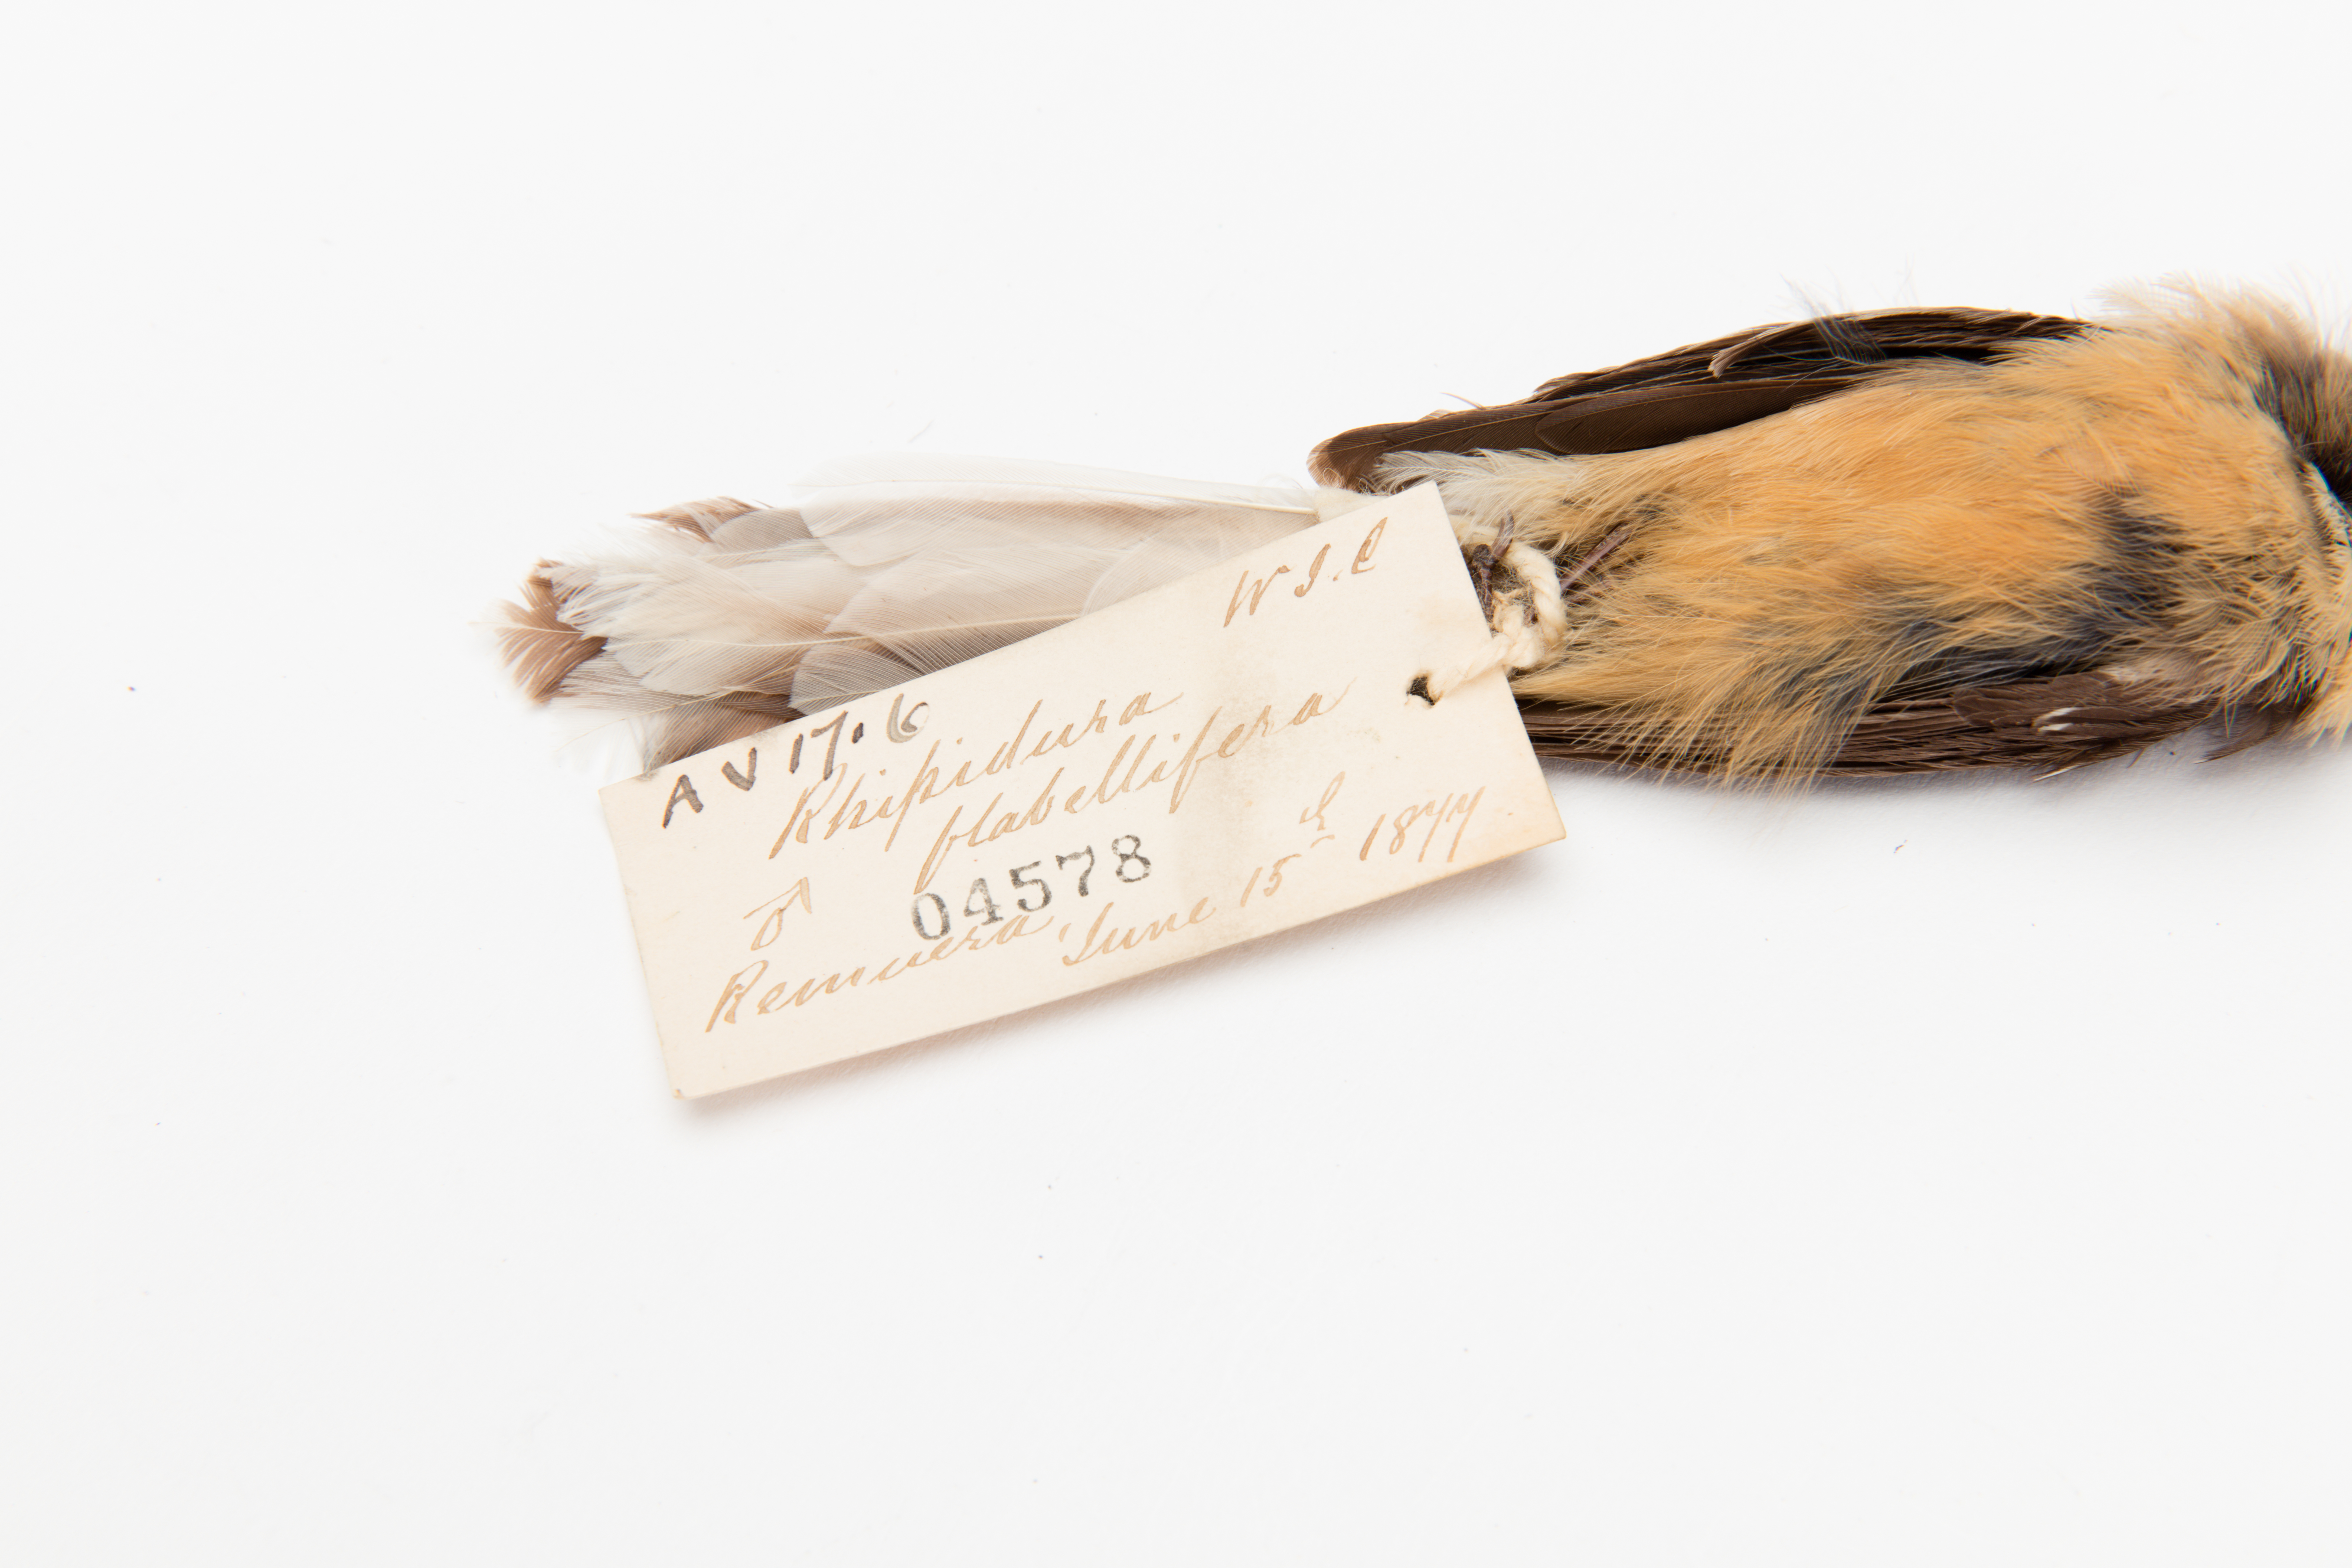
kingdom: Animalia
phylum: Chordata
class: Aves
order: Passeriformes
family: Rhipiduridae
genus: Rhipidura
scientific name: Rhipidura fuliginosa
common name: New zealand fantail
